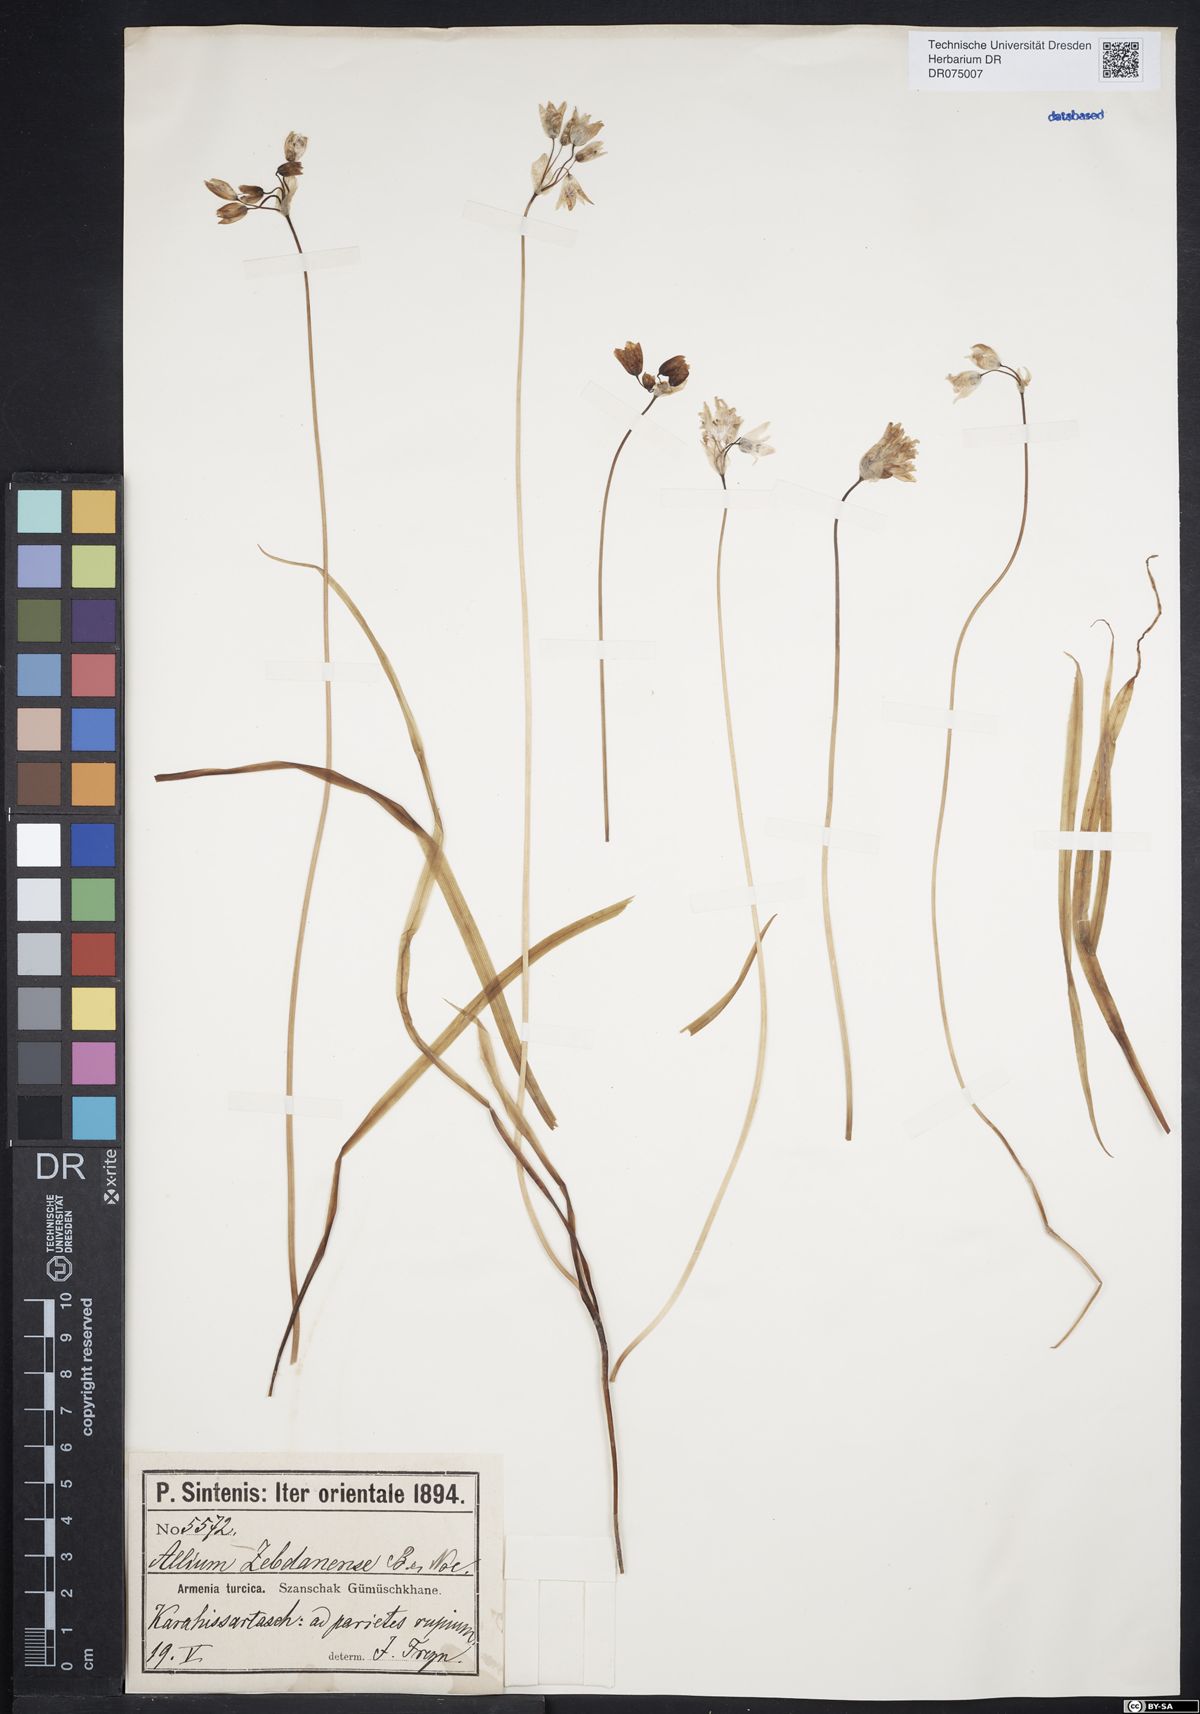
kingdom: Plantae
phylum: Tracheophyta
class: Liliopsida
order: Asparagales
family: Amaryllidaceae
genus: Allium
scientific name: Allium zebdanense
